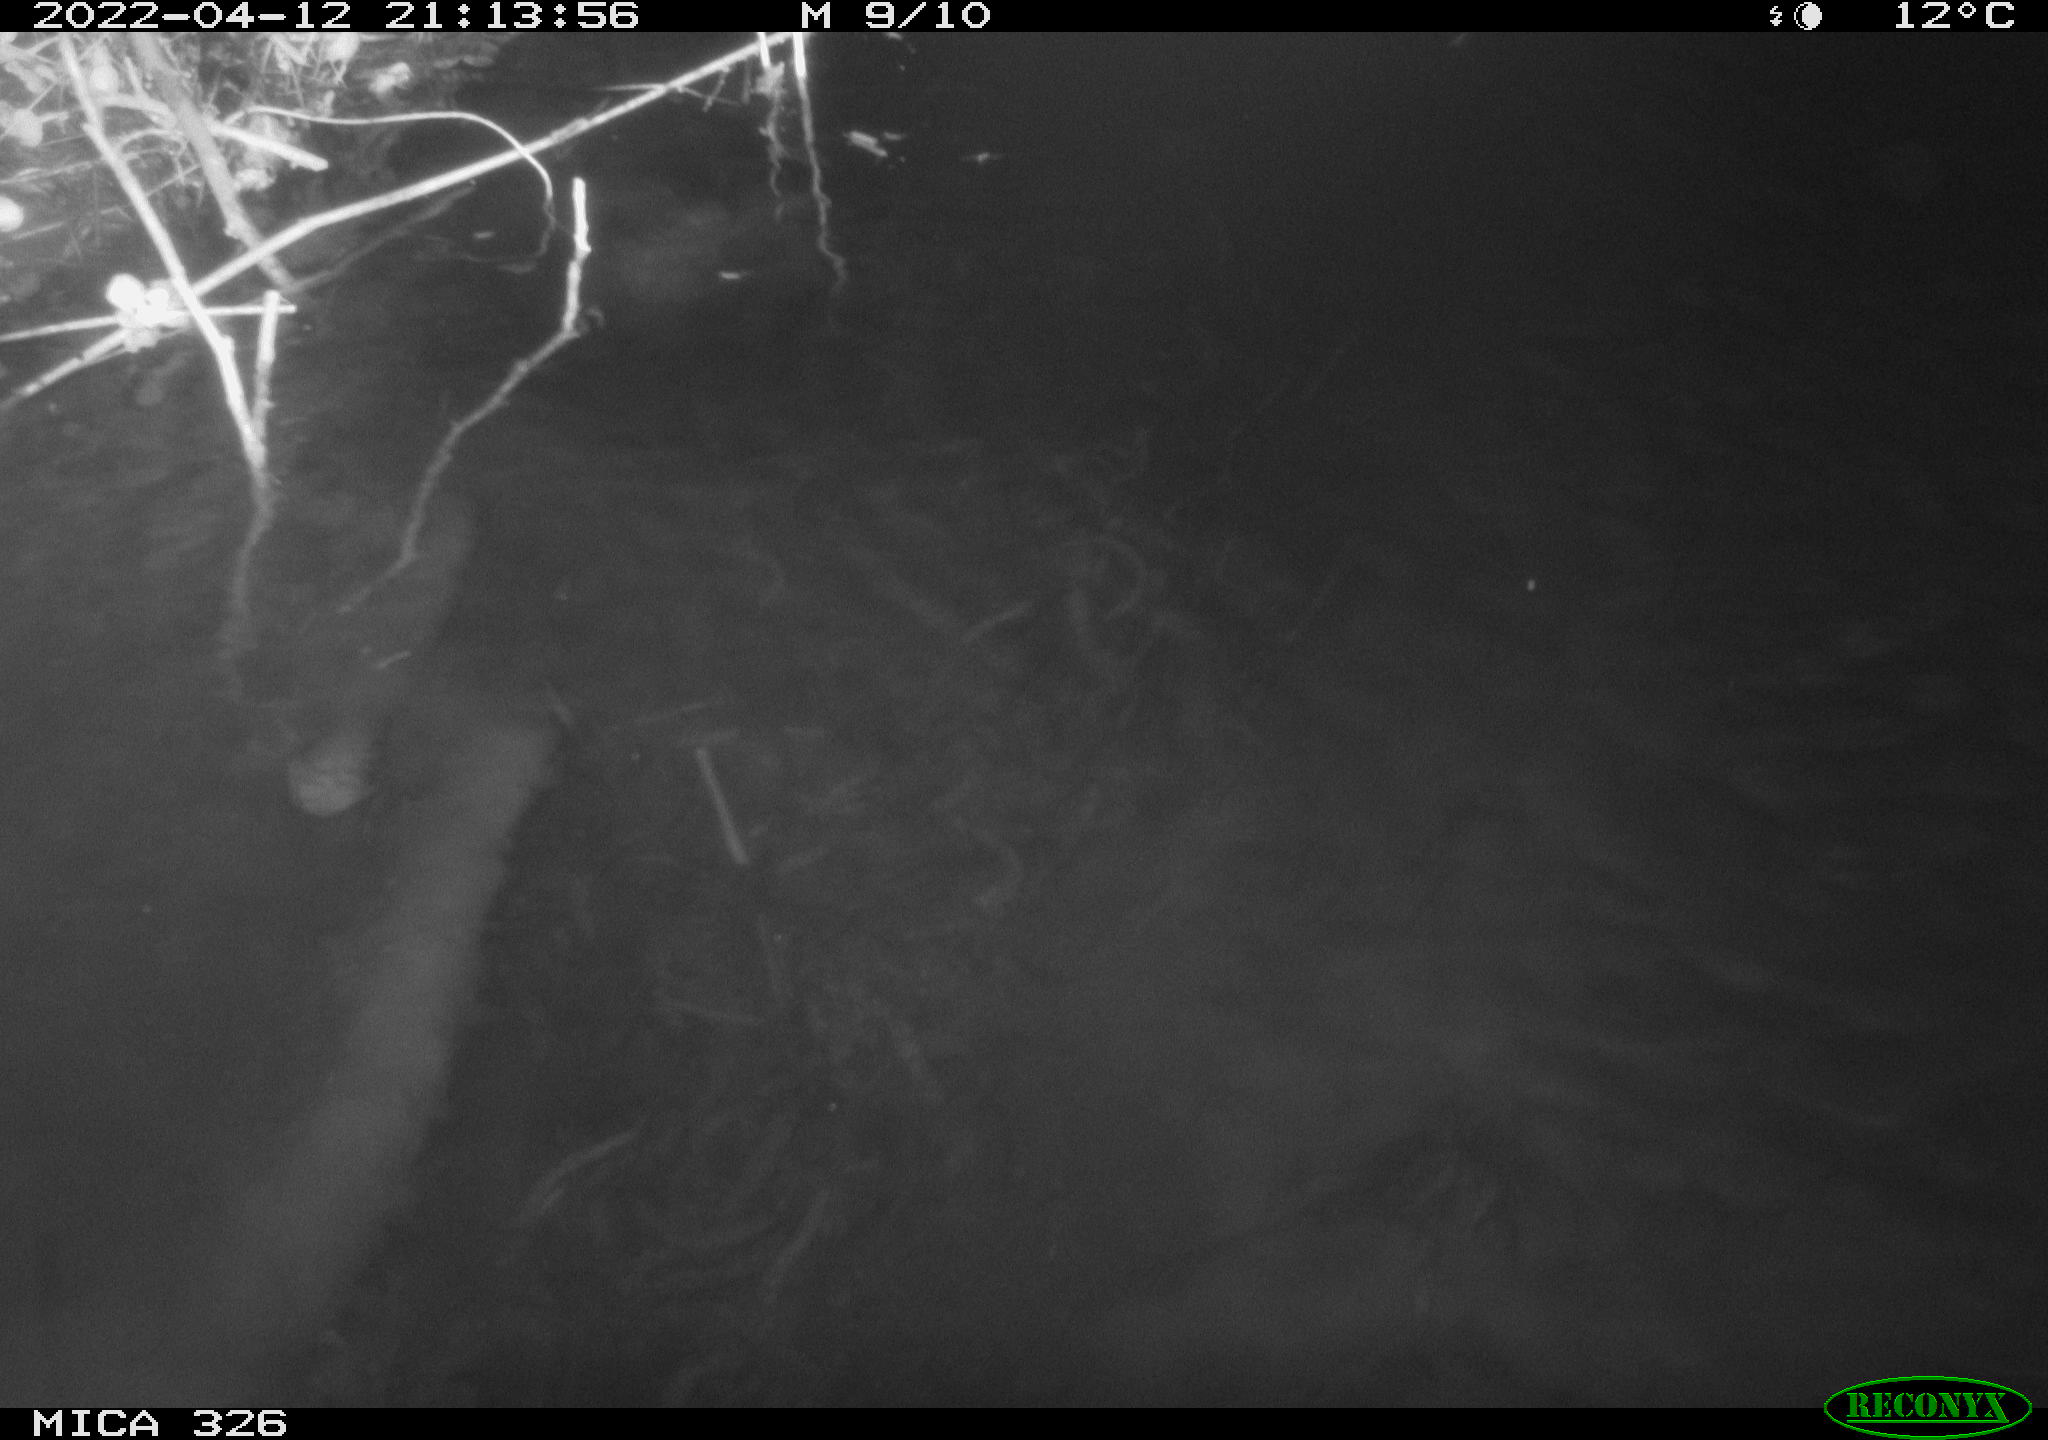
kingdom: Animalia
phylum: Chordata
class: Mammalia
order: Rodentia
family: Muridae
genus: Rattus
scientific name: Rattus norvegicus
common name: Brown rat
